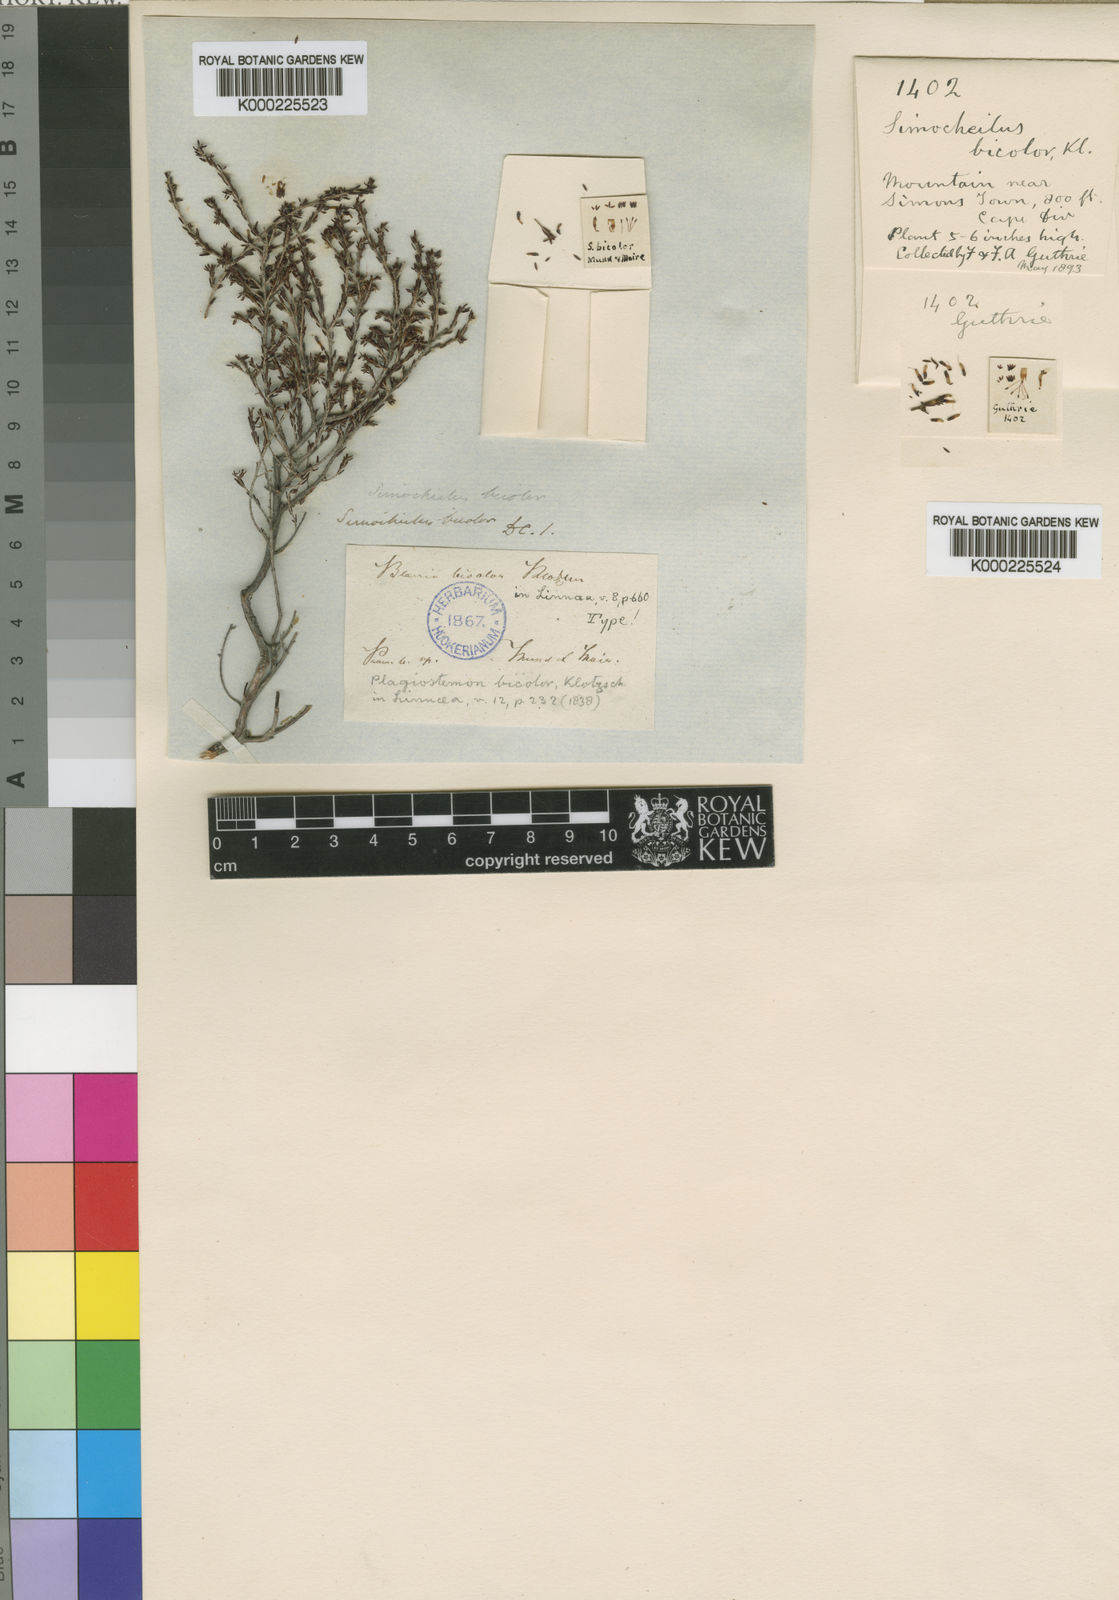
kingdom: Plantae
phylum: Tracheophyta
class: Magnoliopsida
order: Ericales
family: Ericaceae
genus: Erica
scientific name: Erica glabra
